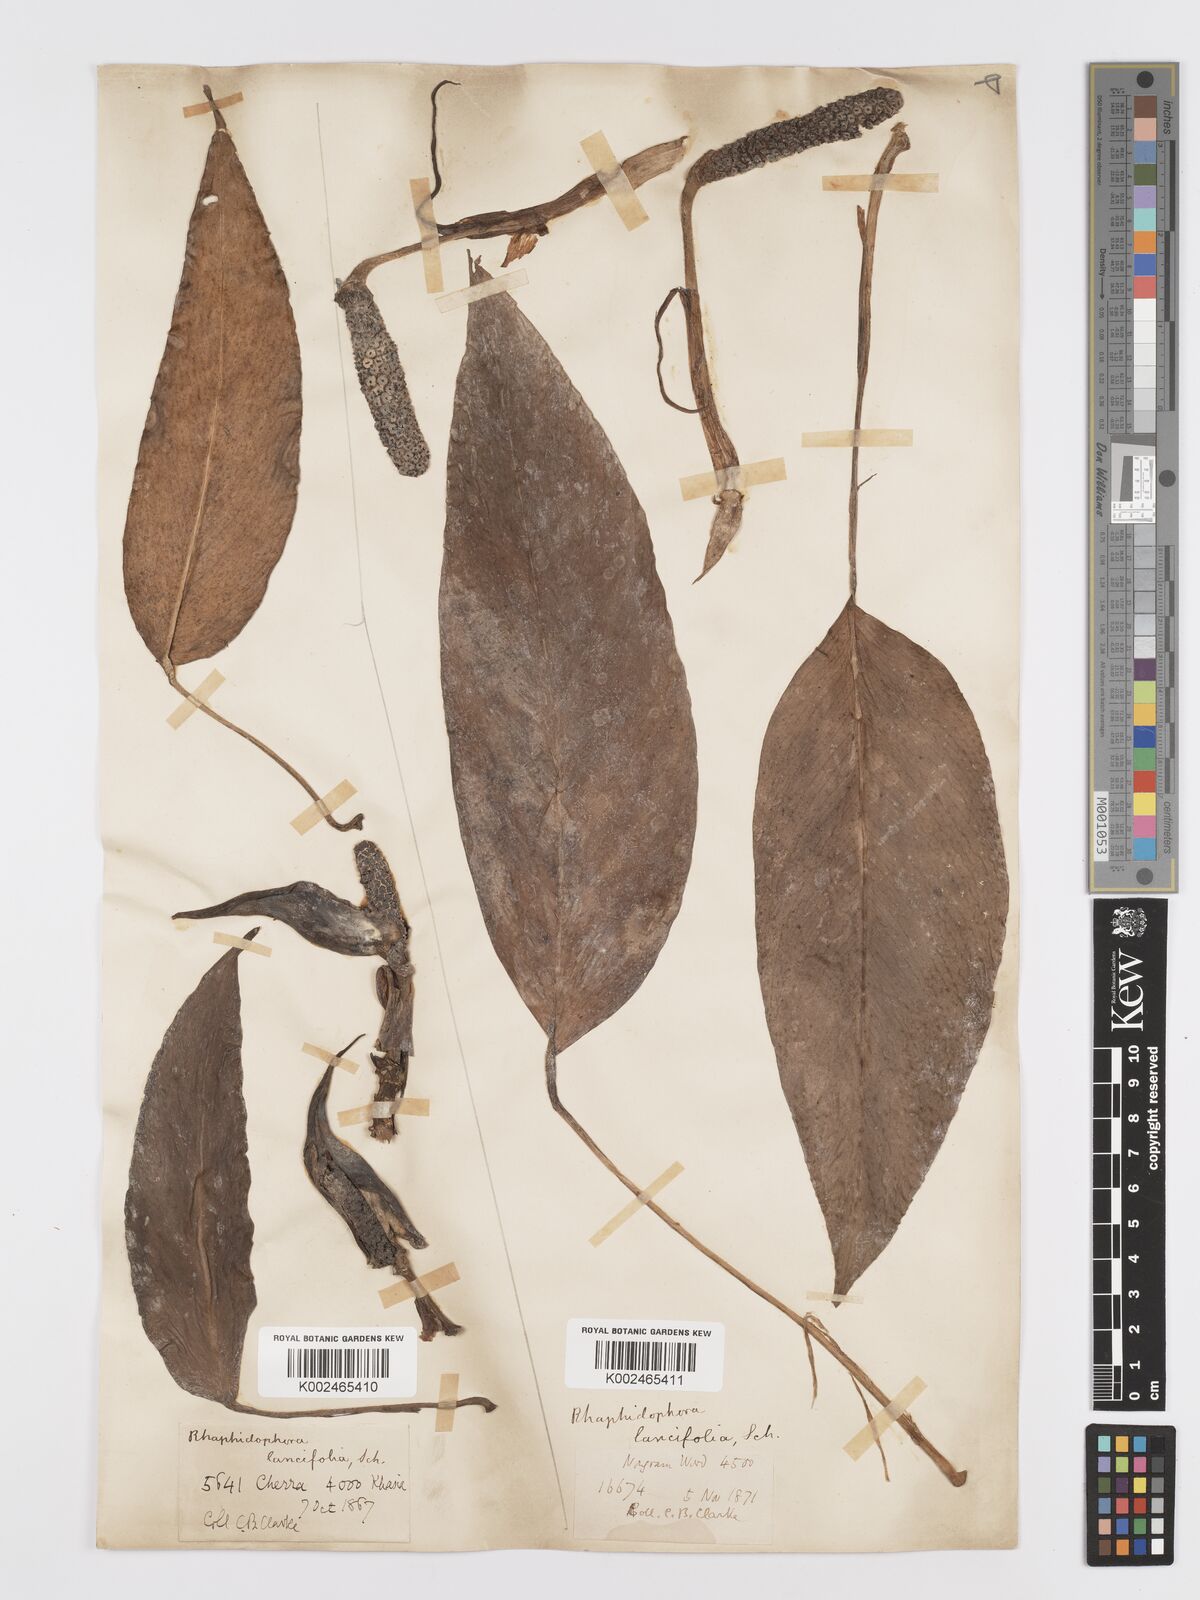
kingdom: Plantae
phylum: Tracheophyta
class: Liliopsida
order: Alismatales
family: Araceae
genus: Rhaphidophora
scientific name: Rhaphidophora peepla
